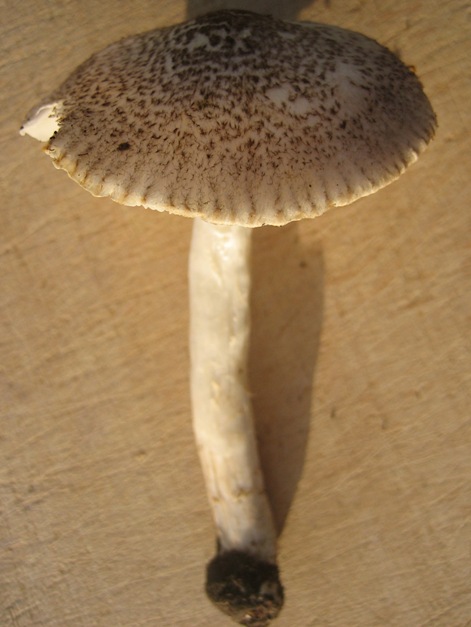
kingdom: Fungi
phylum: Basidiomycota
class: Agaricomycetes
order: Agaricales
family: Tricholomataceae
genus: Tricholoma
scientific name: Tricholoma scalpturatum
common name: gulplettet ridderhat
